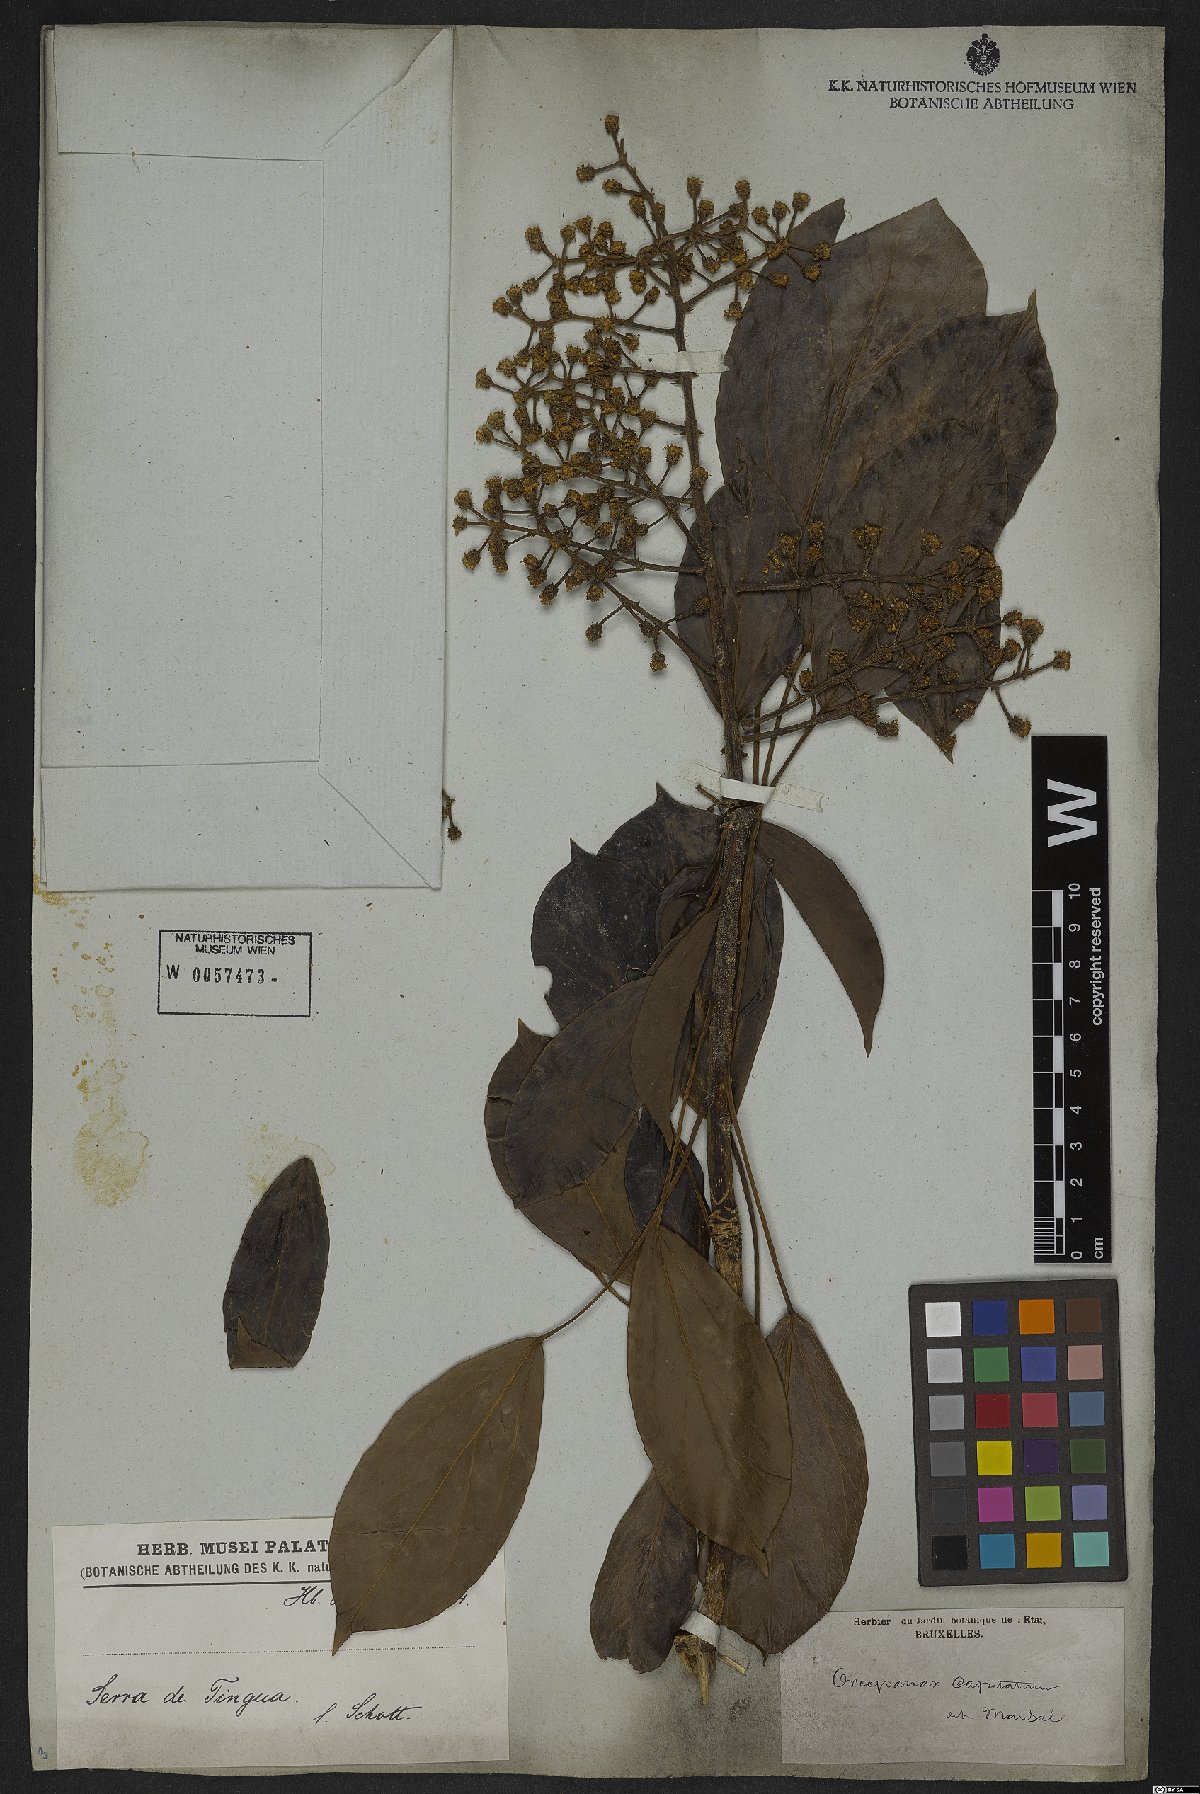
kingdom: Plantae
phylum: Tracheophyta
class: Magnoliopsida
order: Apiales
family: Araliaceae
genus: Oreopanax
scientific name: Oreopanax capitatus
